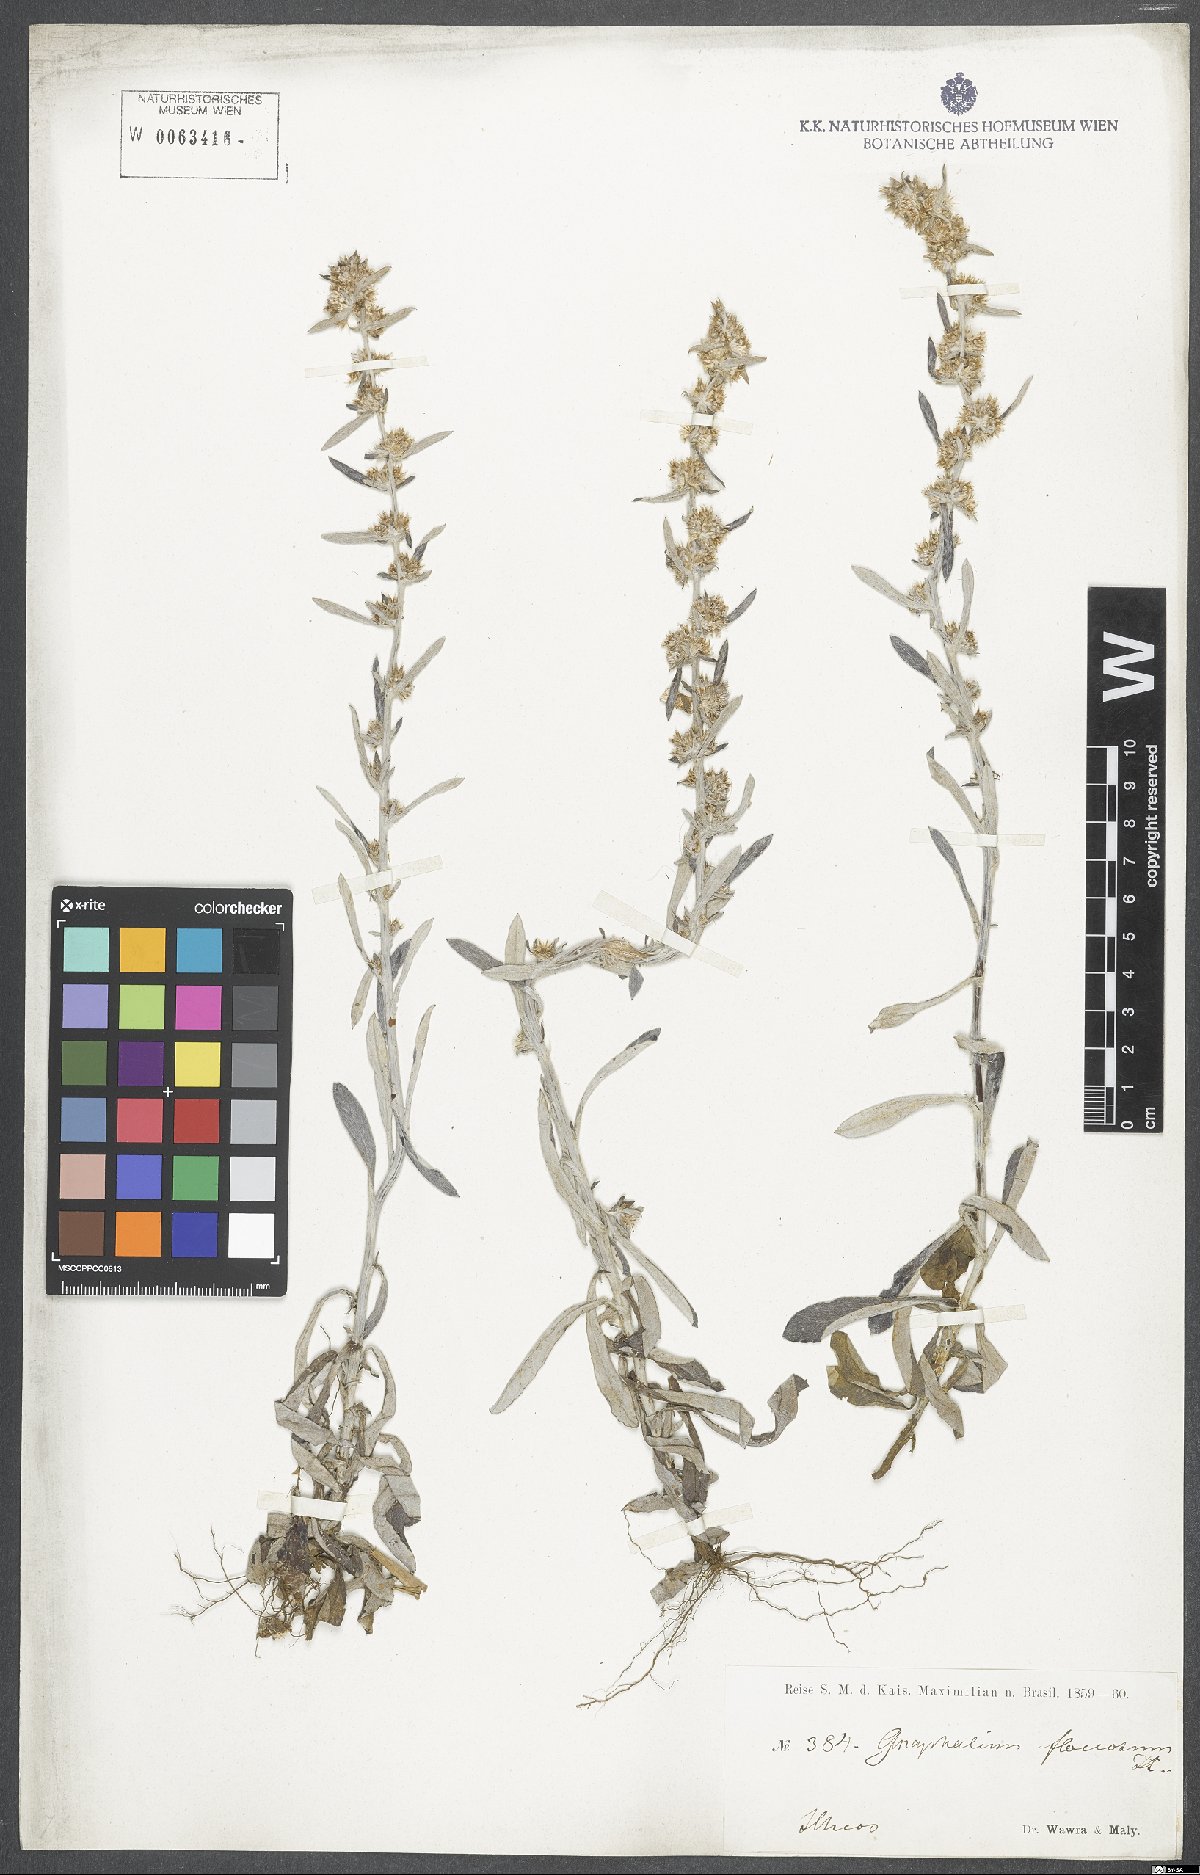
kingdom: Plantae
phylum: Tracheophyta
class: Magnoliopsida
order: Asterales
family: Asteraceae
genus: Helichrysum
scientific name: Helichrysum indicum
